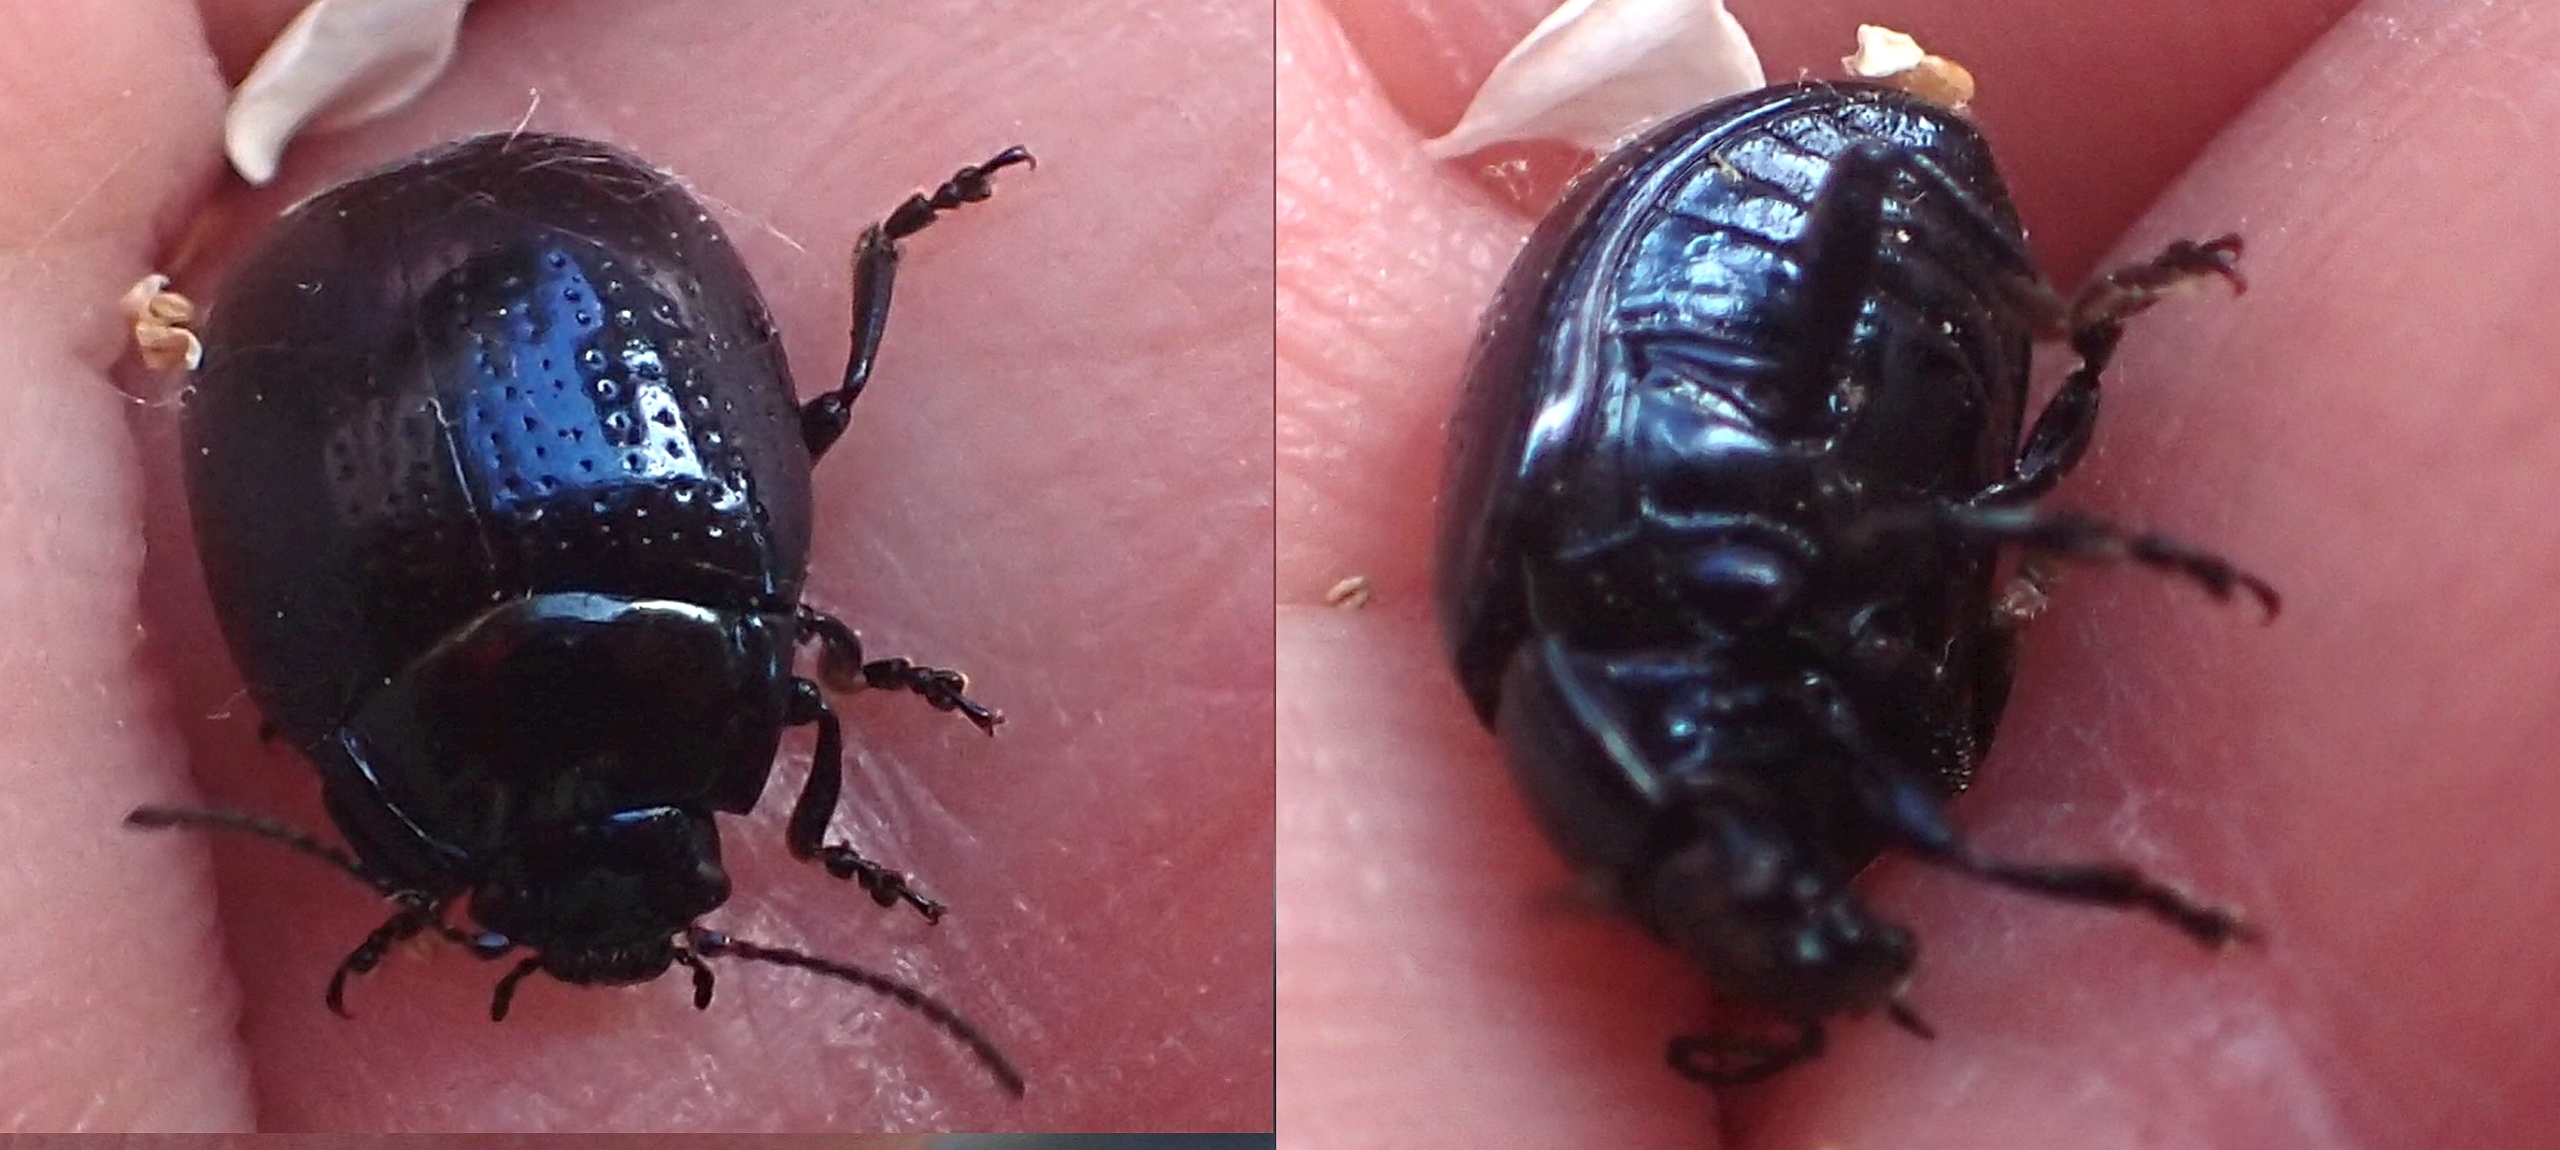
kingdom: Animalia
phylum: Arthropoda
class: Insecta
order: Coleoptera
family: Chrysomelidae
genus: Chrysolina
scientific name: Chrysolina oricalcia
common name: Rækkepunkteret guldbille
